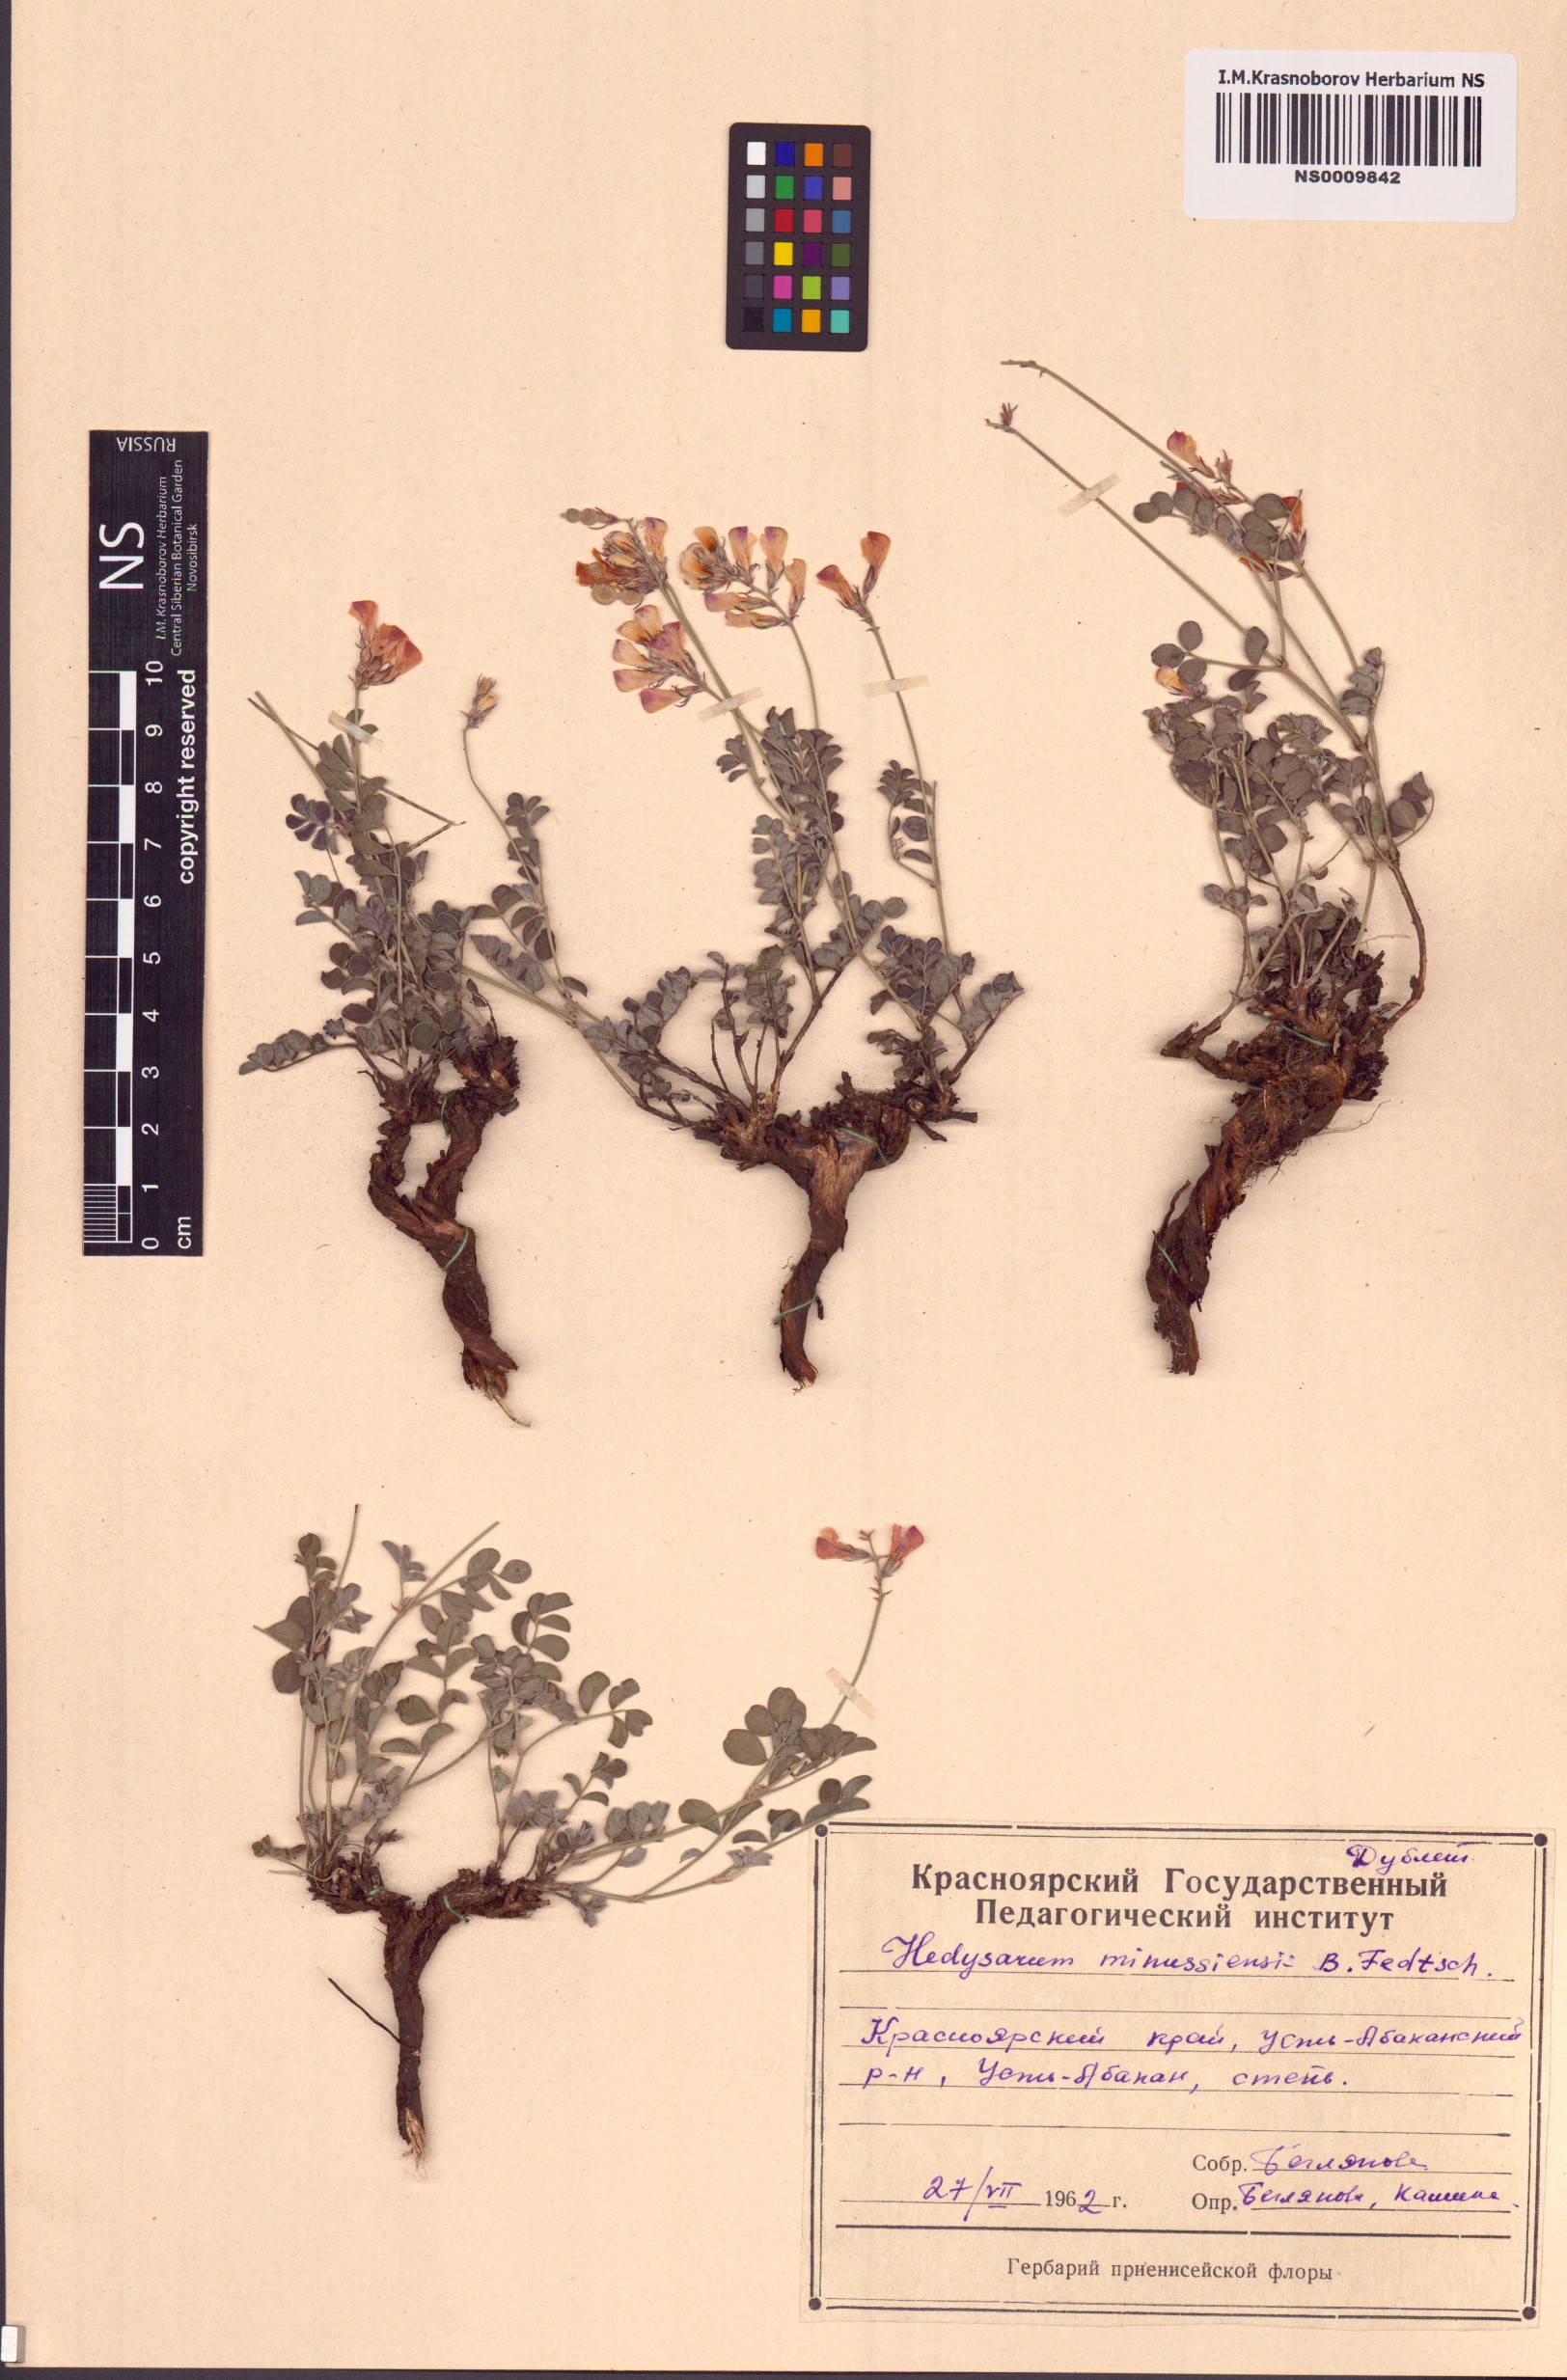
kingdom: Plantae
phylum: Tracheophyta
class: Magnoliopsida
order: Fabales
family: Fabaceae
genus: Hedysarum
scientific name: Hedysarum minussinense
